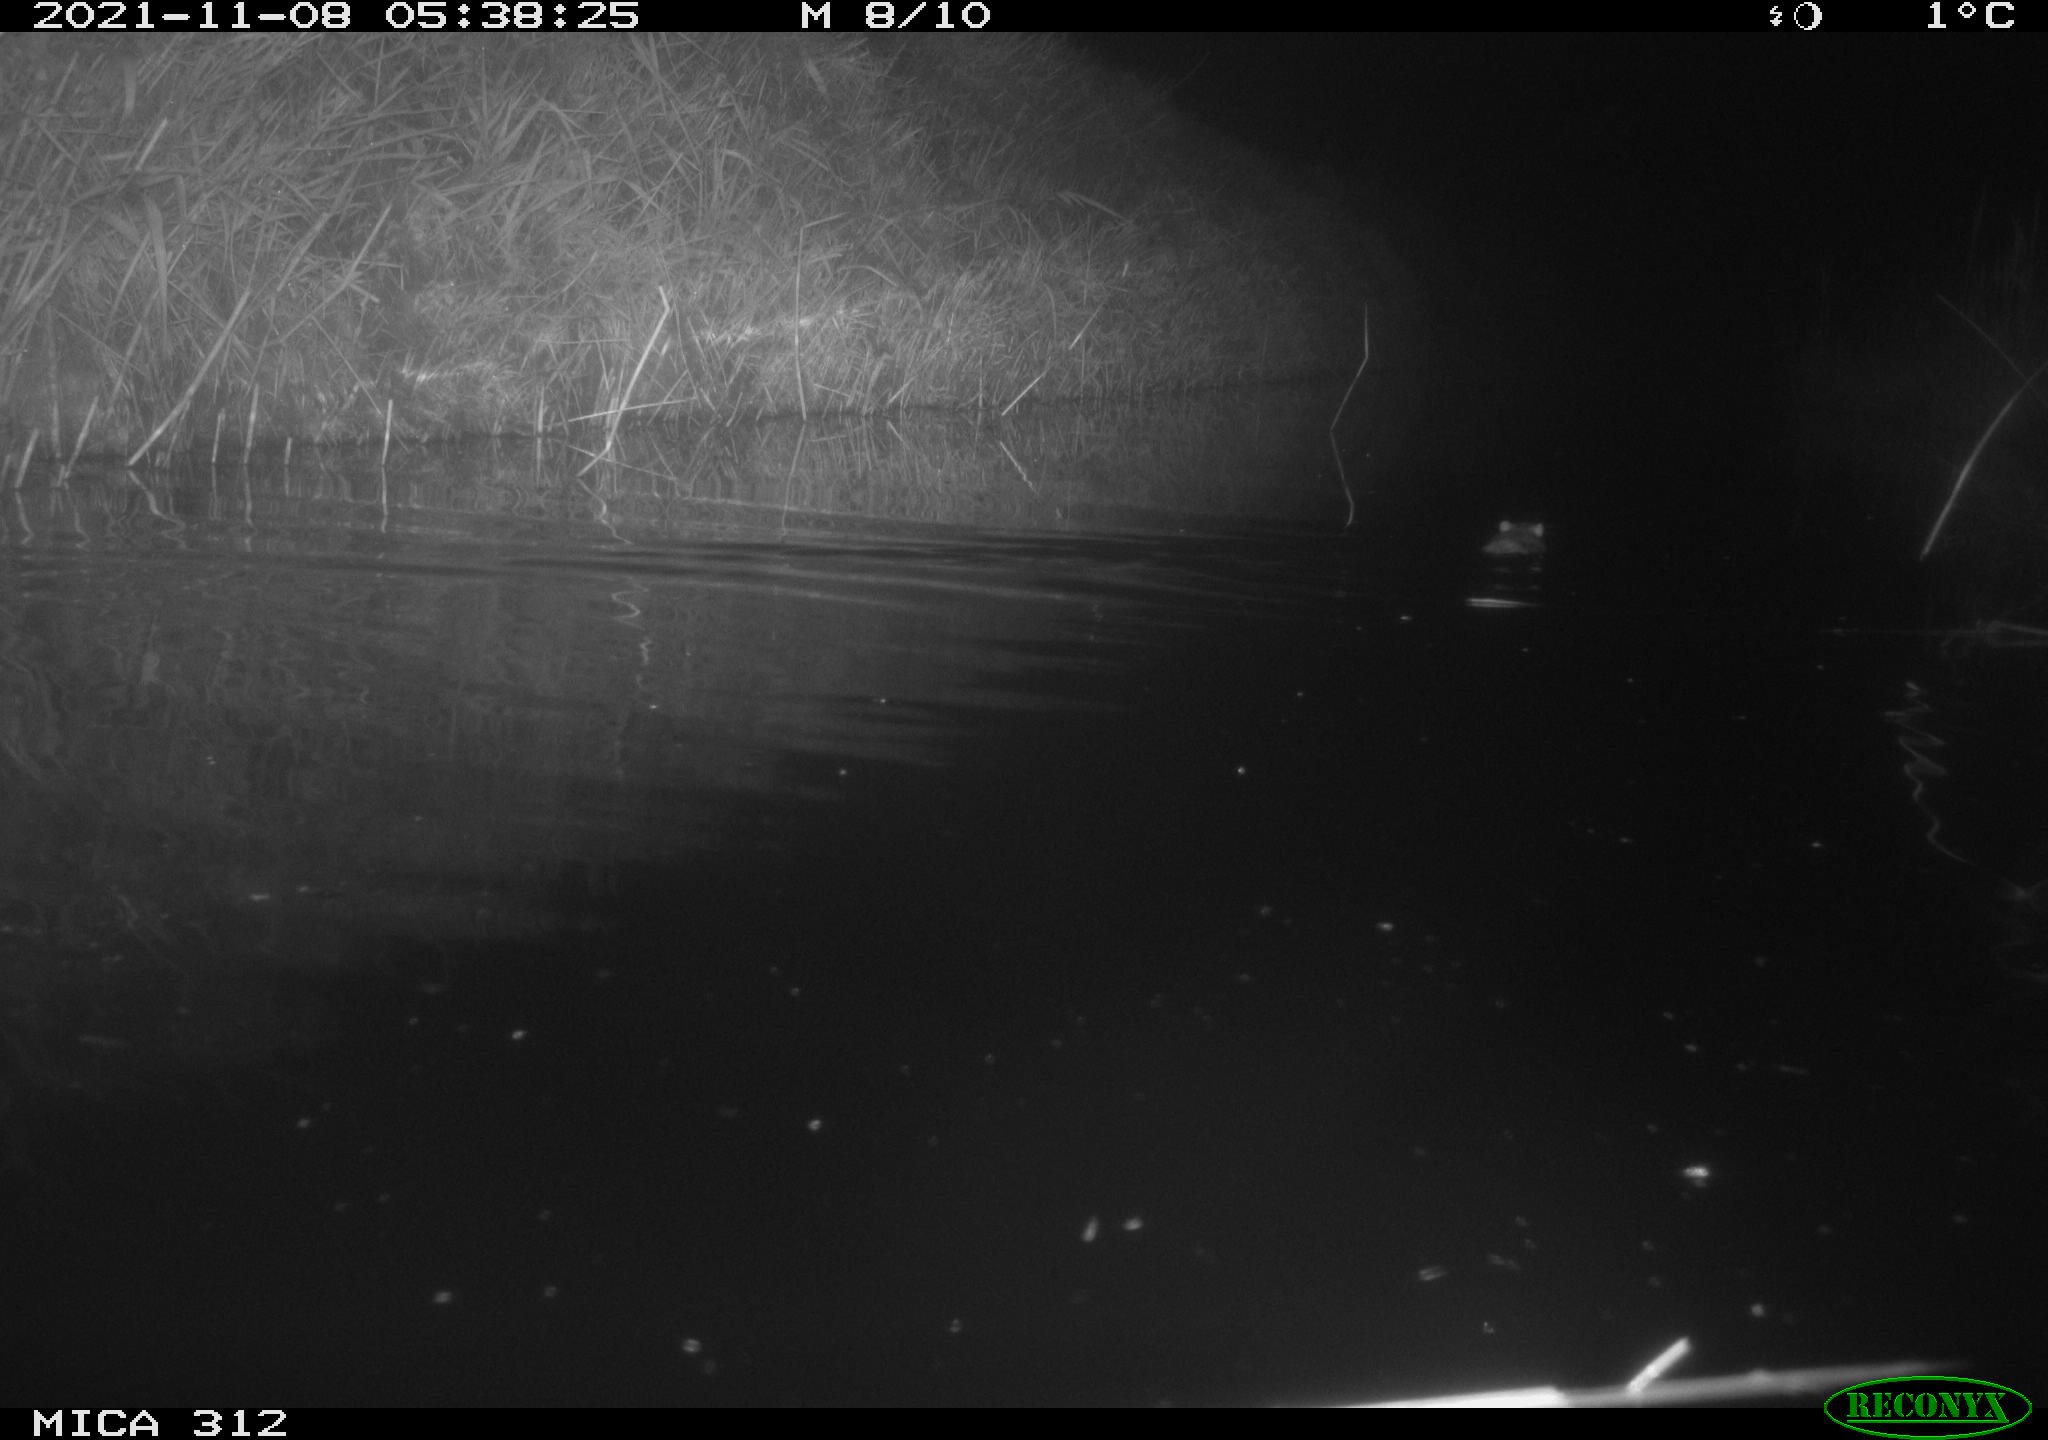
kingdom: Animalia
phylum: Chordata
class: Mammalia
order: Rodentia
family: Muridae
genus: Rattus
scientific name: Rattus norvegicus
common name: Brown rat
